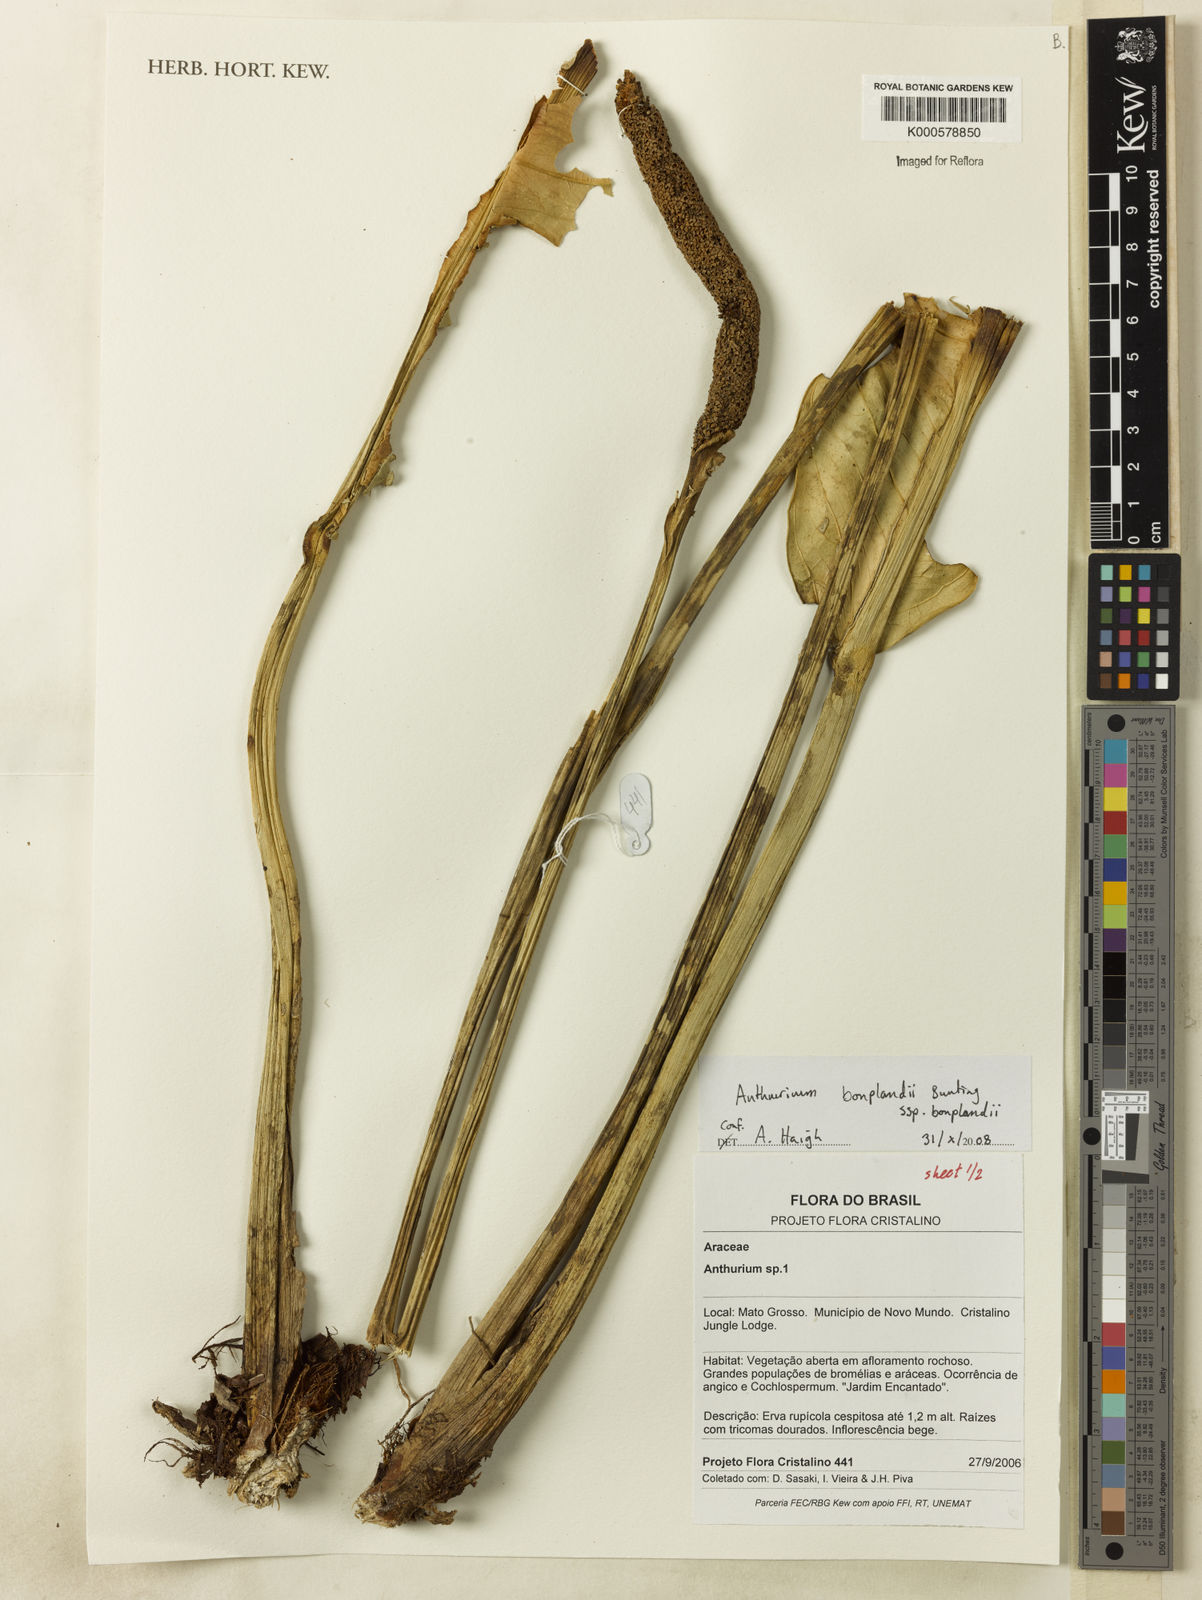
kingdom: Plantae
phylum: Tracheophyta
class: Liliopsida
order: Alismatales
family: Araceae
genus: Anthurium
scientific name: Anthurium bonplandii
